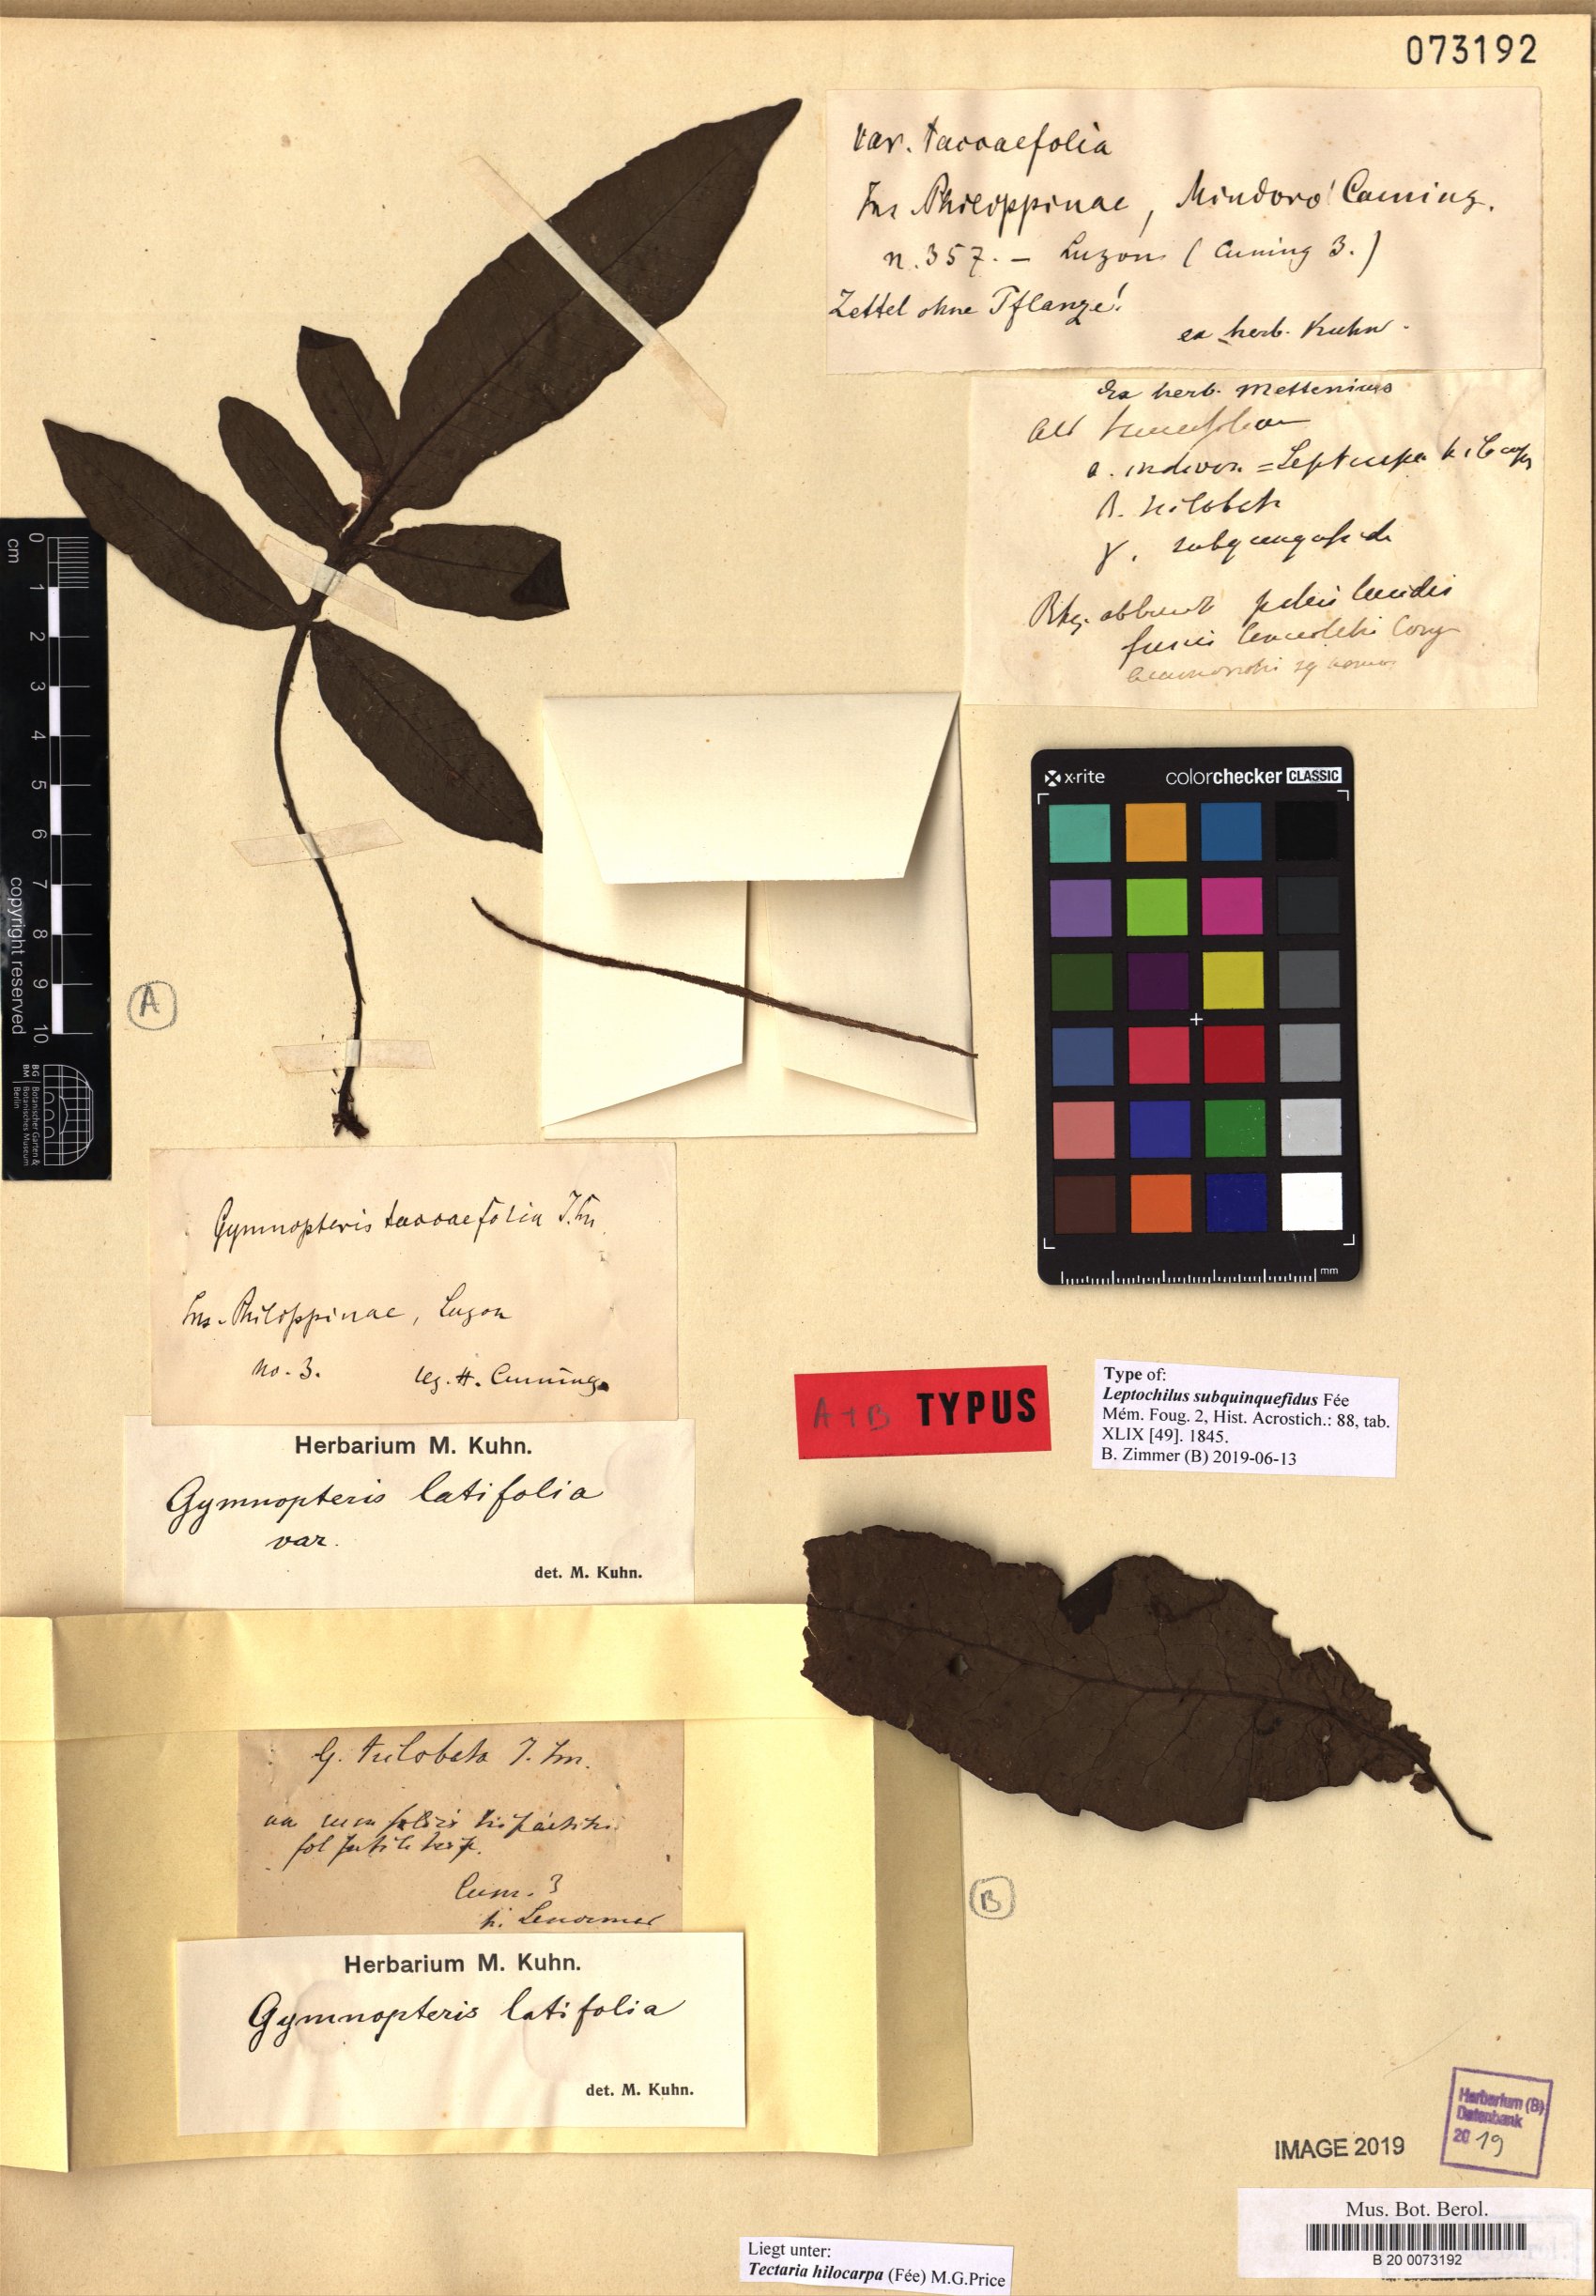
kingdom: Plantae
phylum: Tracheophyta
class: Polypodiopsida
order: Polypodiales
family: Tectariaceae
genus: Tectaria
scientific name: Tectaria hilocarpa
